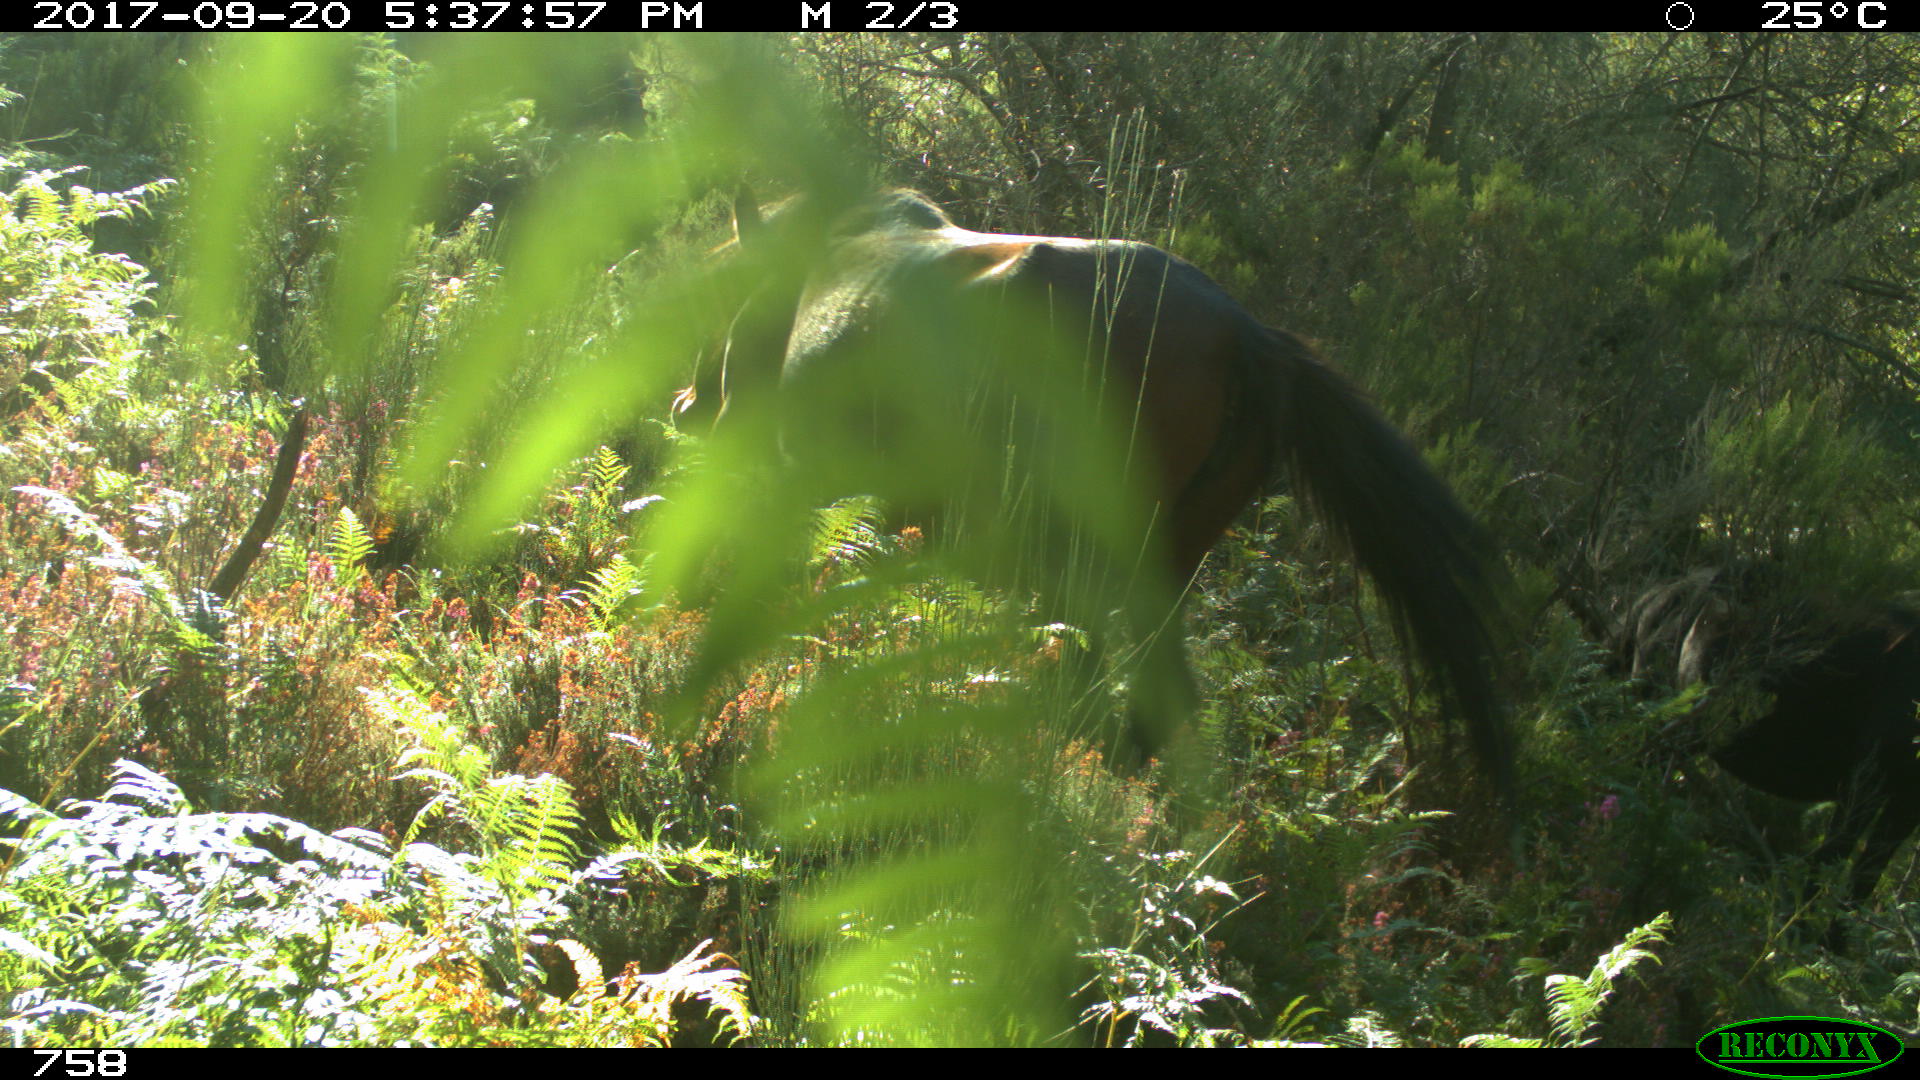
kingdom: Animalia
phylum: Chordata
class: Mammalia
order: Perissodactyla
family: Equidae
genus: Equus
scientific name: Equus caballus
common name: Horse
